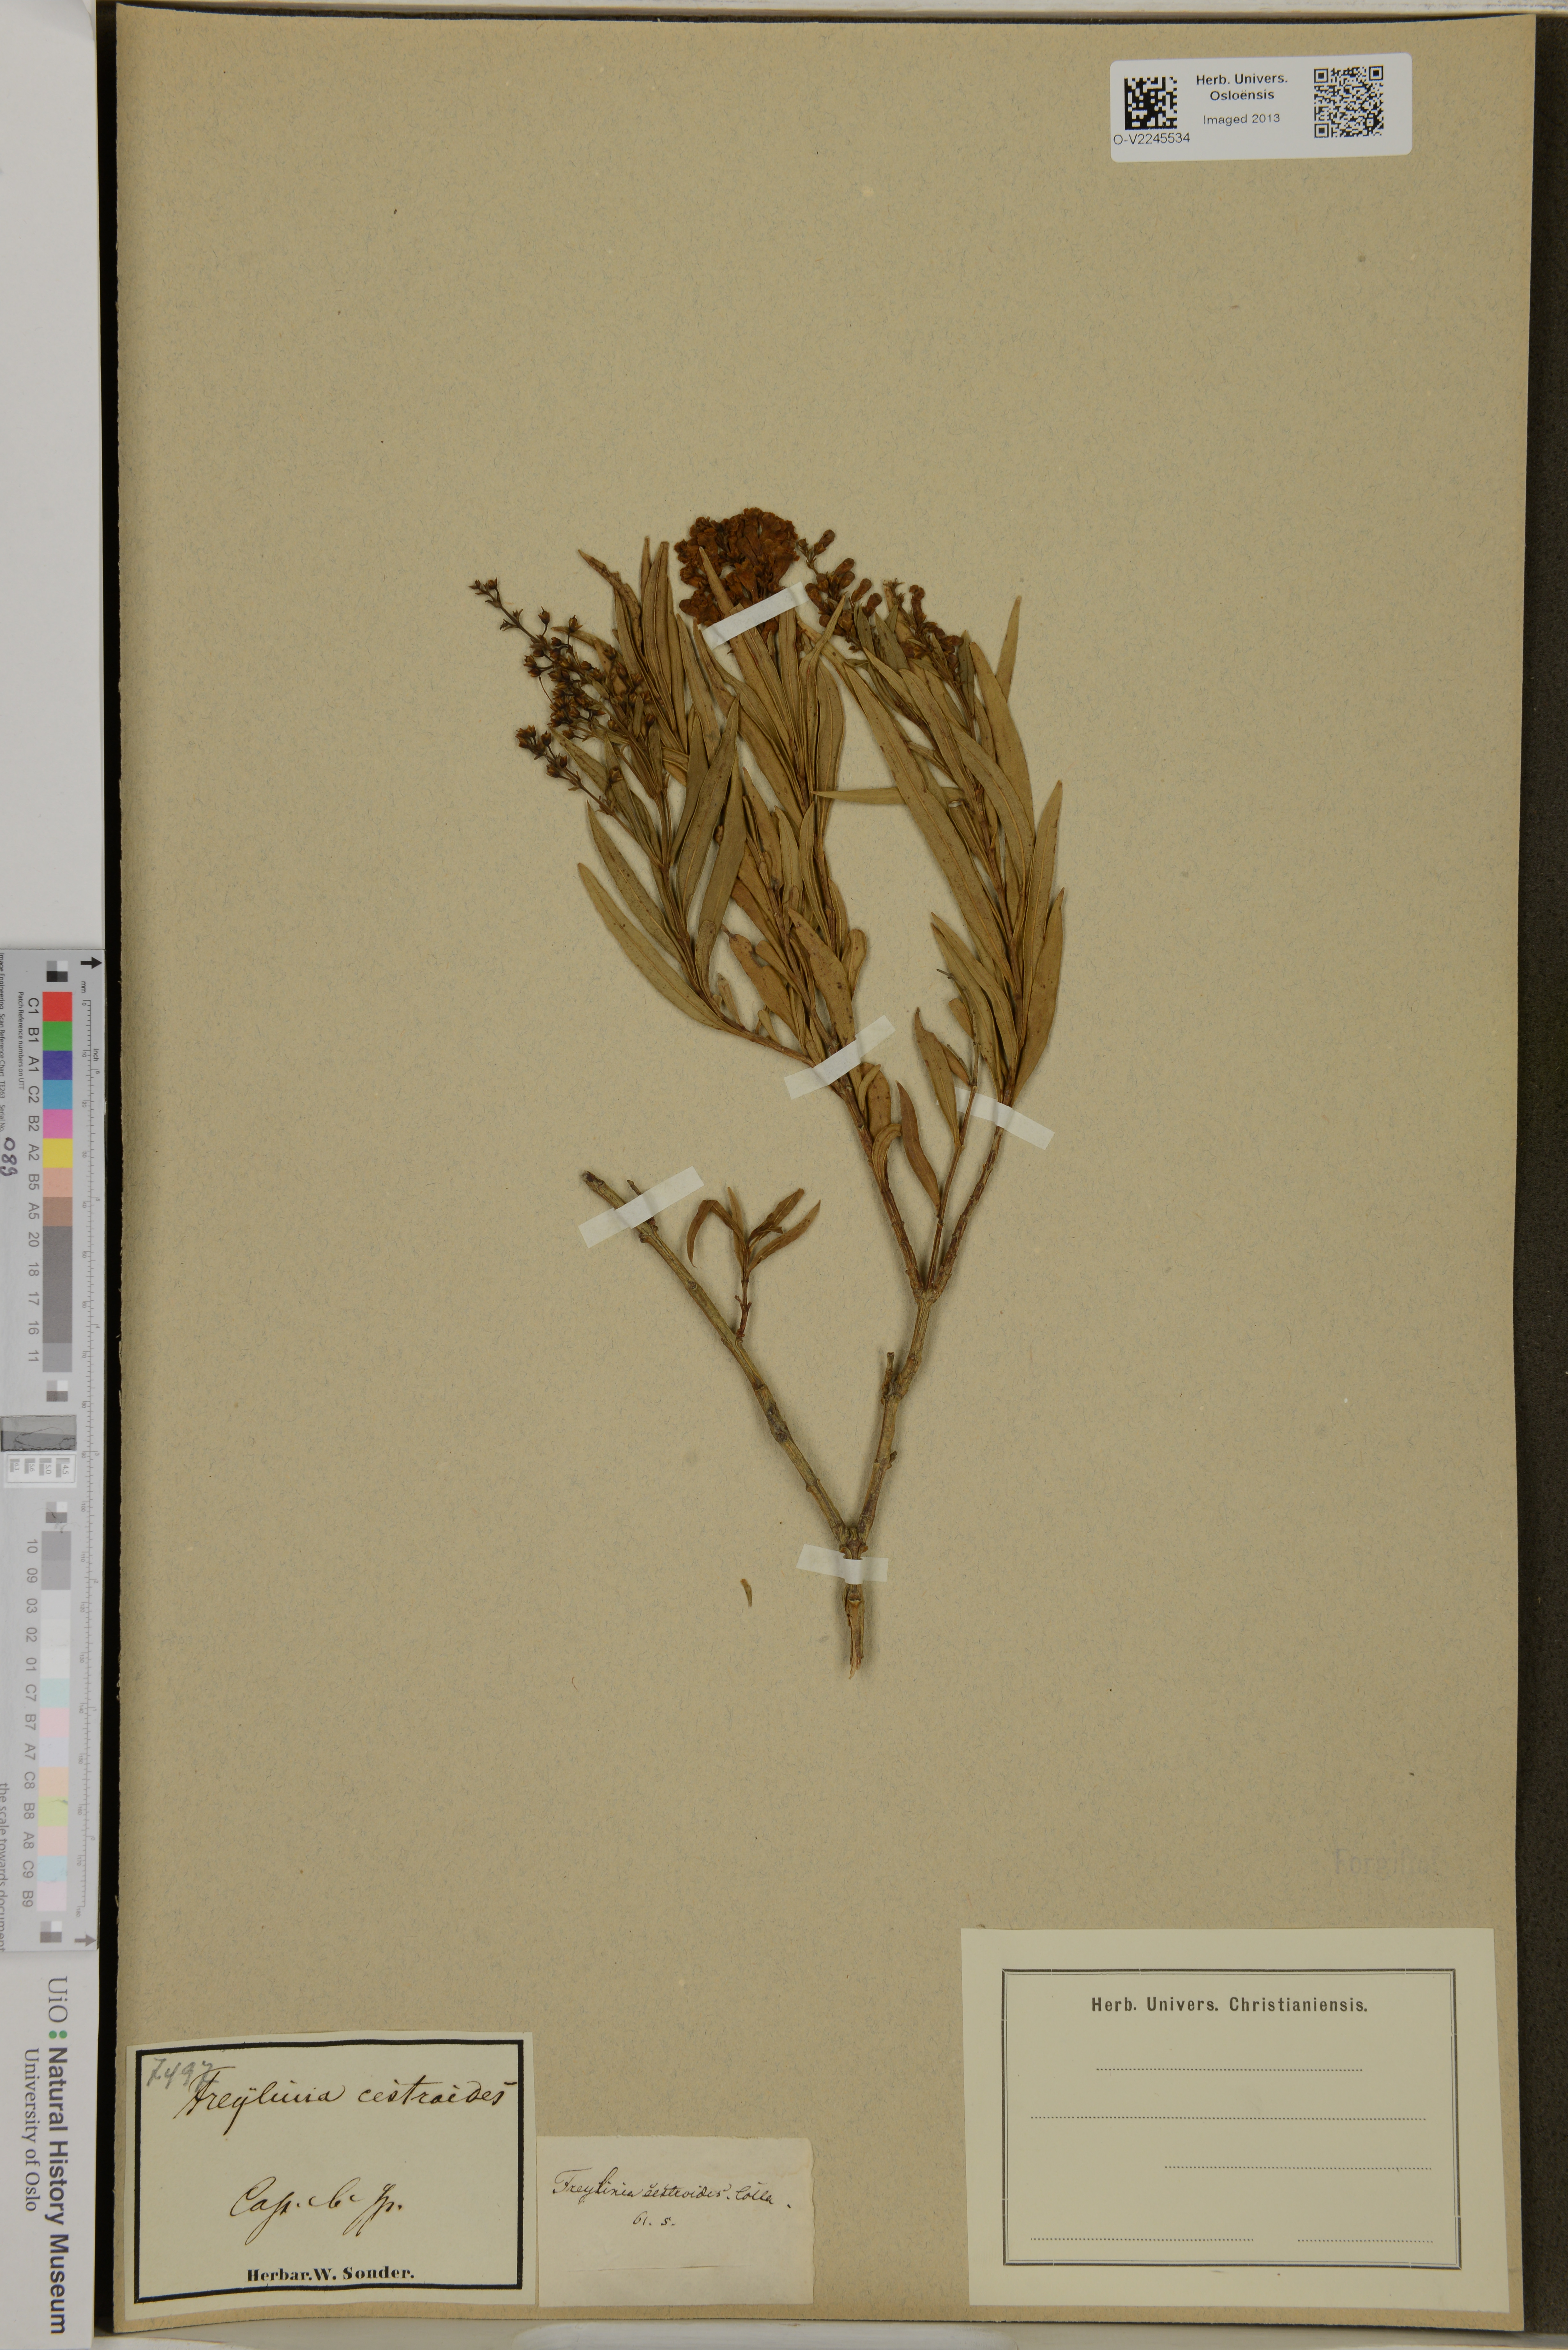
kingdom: Plantae
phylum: Tracheophyta
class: Magnoliopsida
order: Lamiales
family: Scrophulariaceae
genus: Freylinia
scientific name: Freylinia lanceolata
